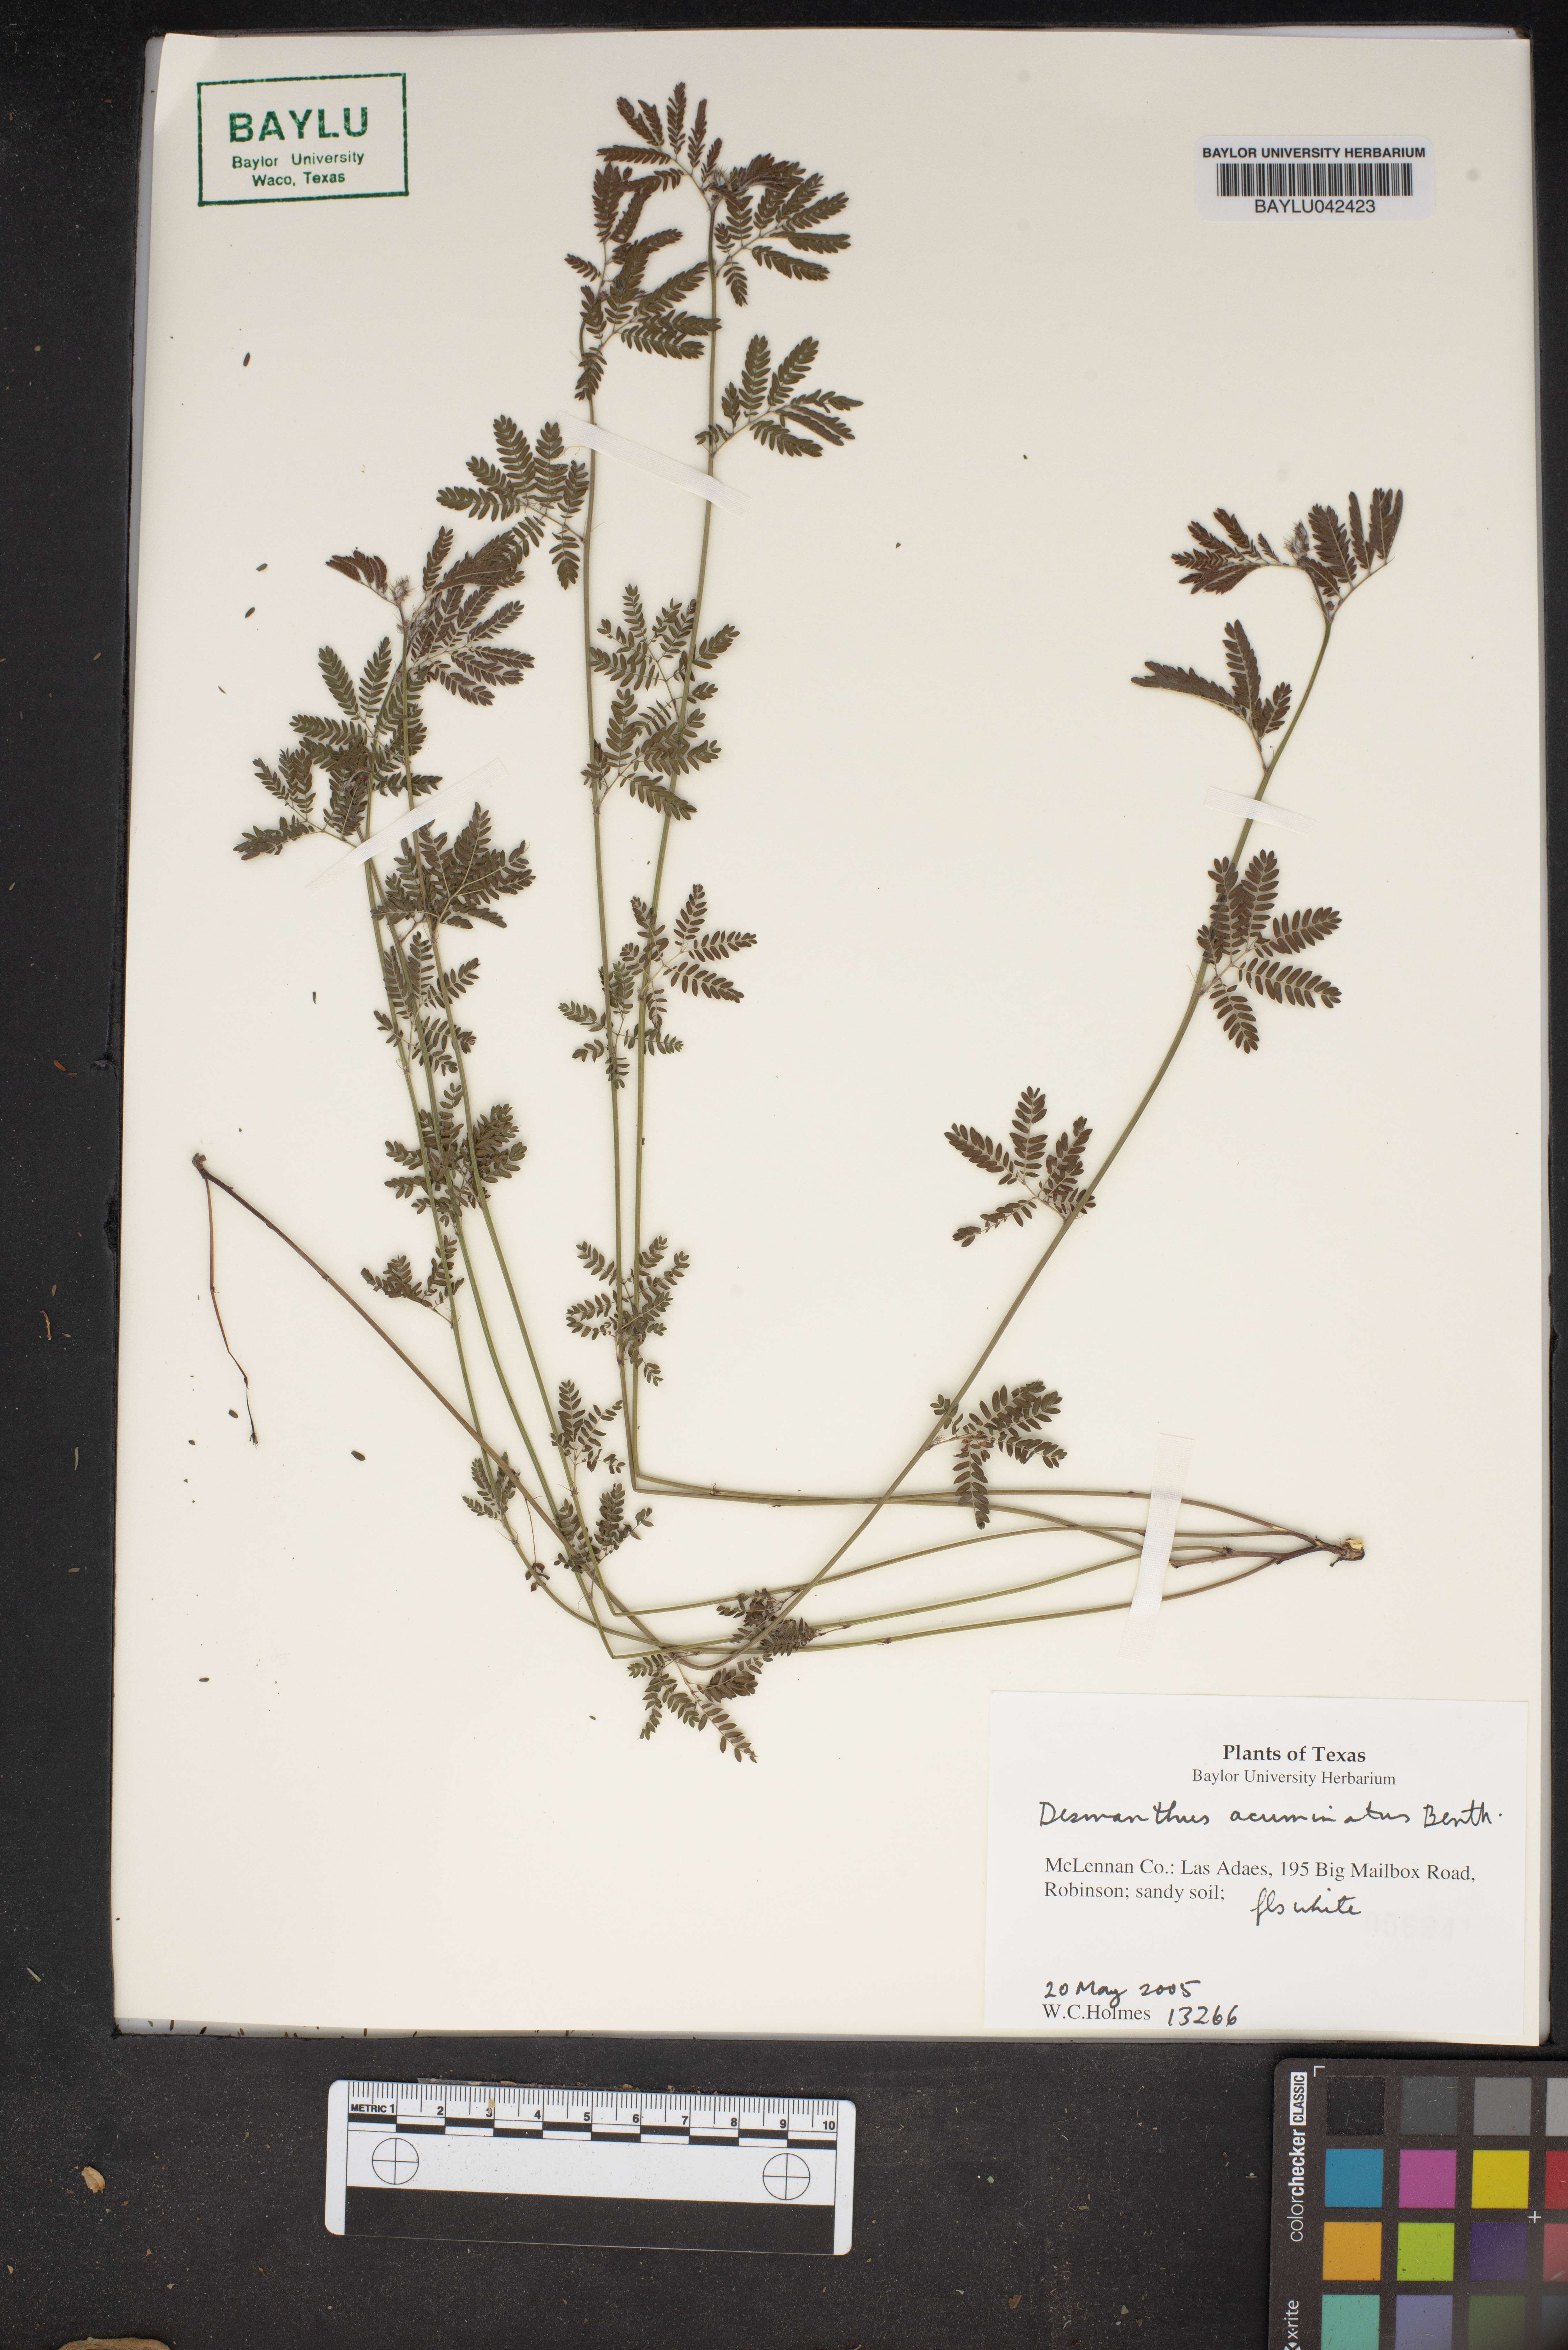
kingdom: Plantae
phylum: Tracheophyta
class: Magnoliopsida
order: Fabales
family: Fabaceae
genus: Desmanthus
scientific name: Desmanthus acuminatus
